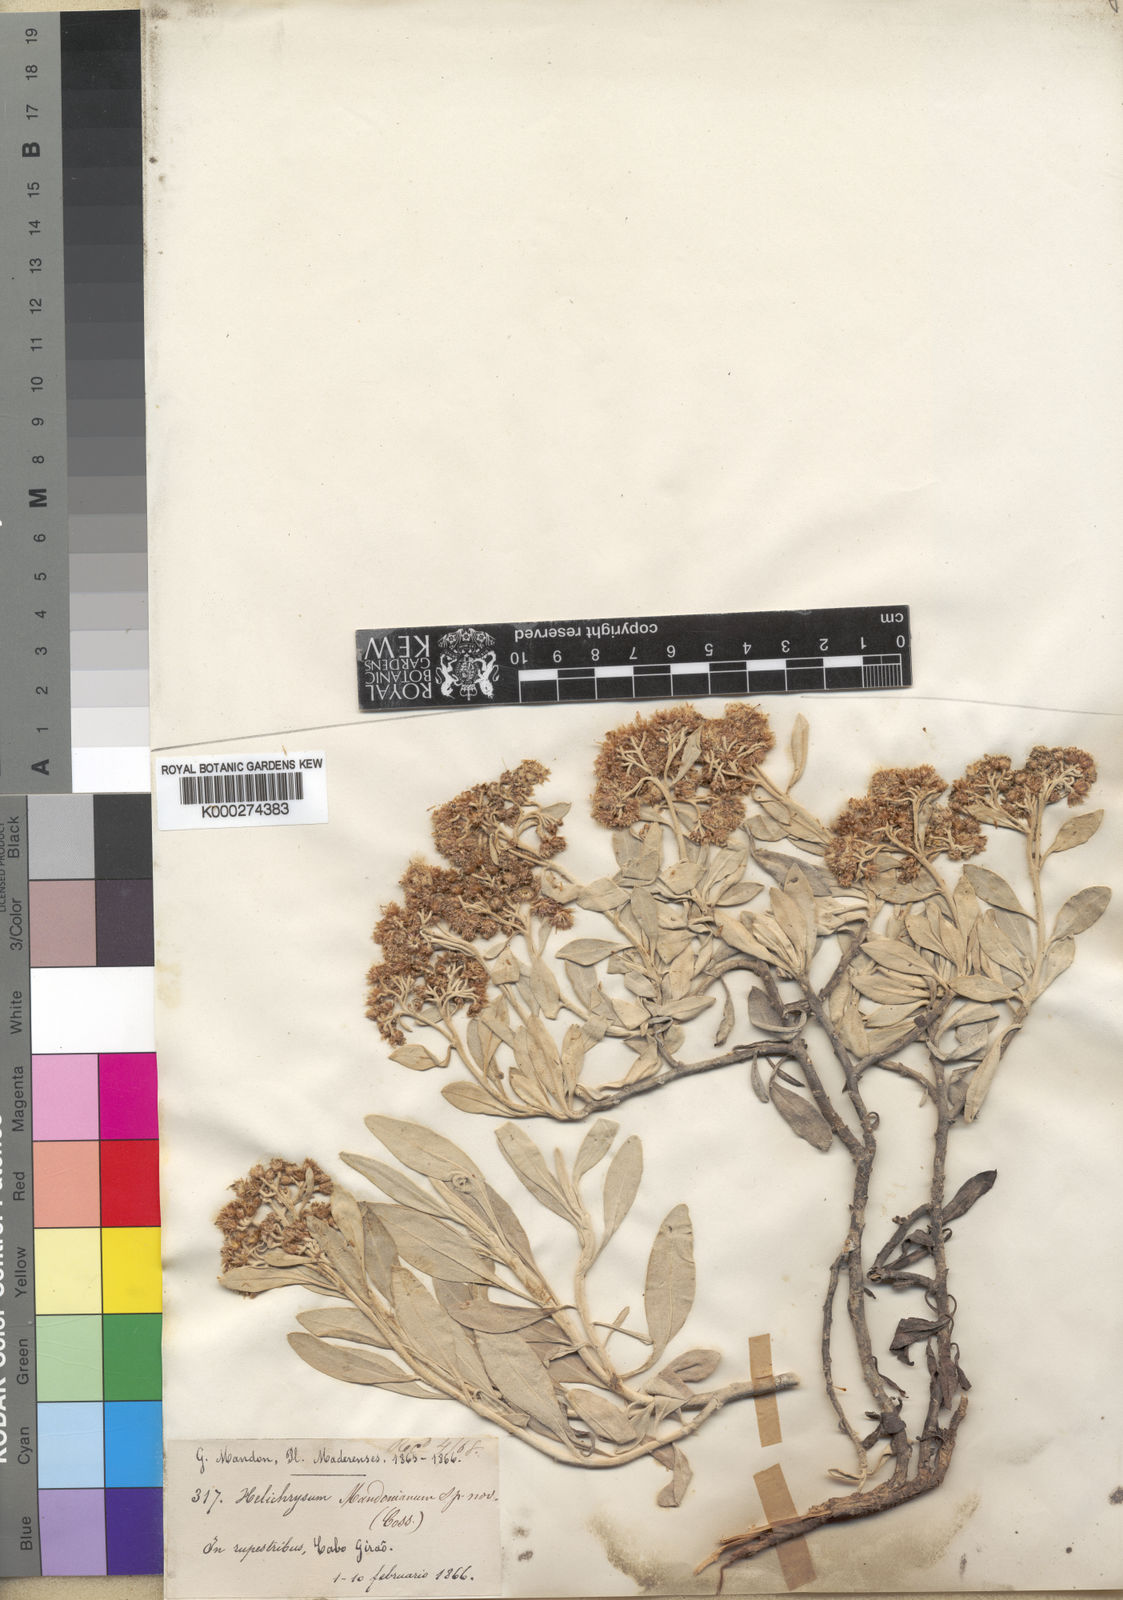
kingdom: Plantae
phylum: Tracheophyta
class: Magnoliopsida
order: Asterales
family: Asteraceae
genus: Helichrysum
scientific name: Helichrysum
